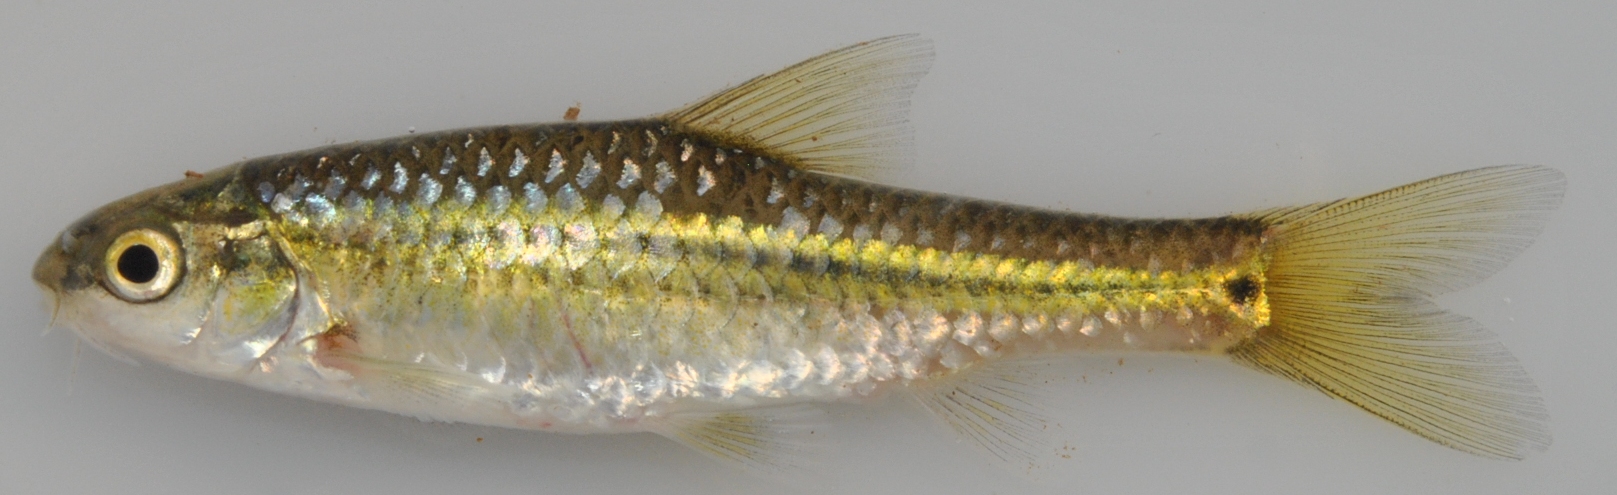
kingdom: Animalia
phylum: Chordata
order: Cypriniformes
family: Cyprinidae
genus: Enteromius
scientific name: Enteromius anoplus
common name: Chubbyhead barb
